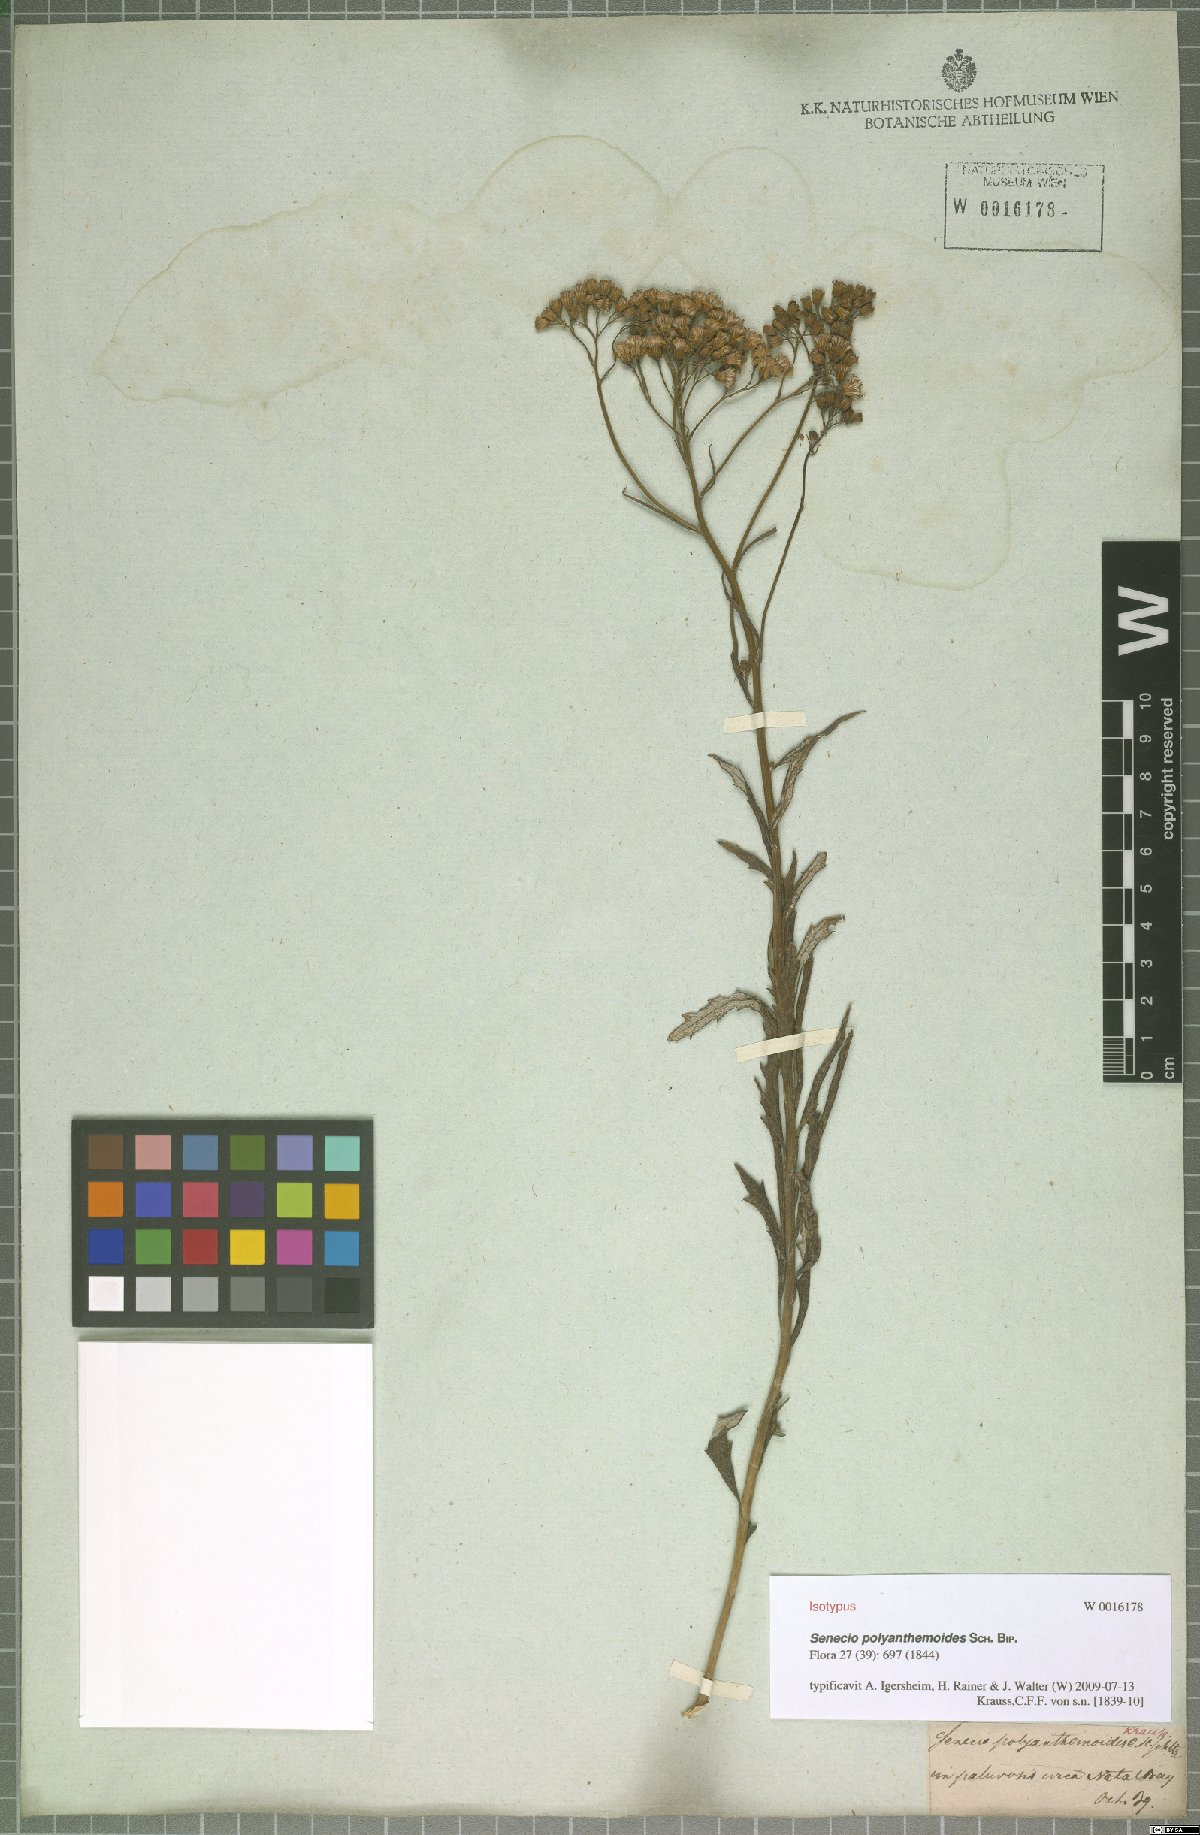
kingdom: Plantae
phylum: Tracheophyta
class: Magnoliopsida
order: Asterales
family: Asteraceae
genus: Senecio
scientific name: Senecio polyanthemoides
